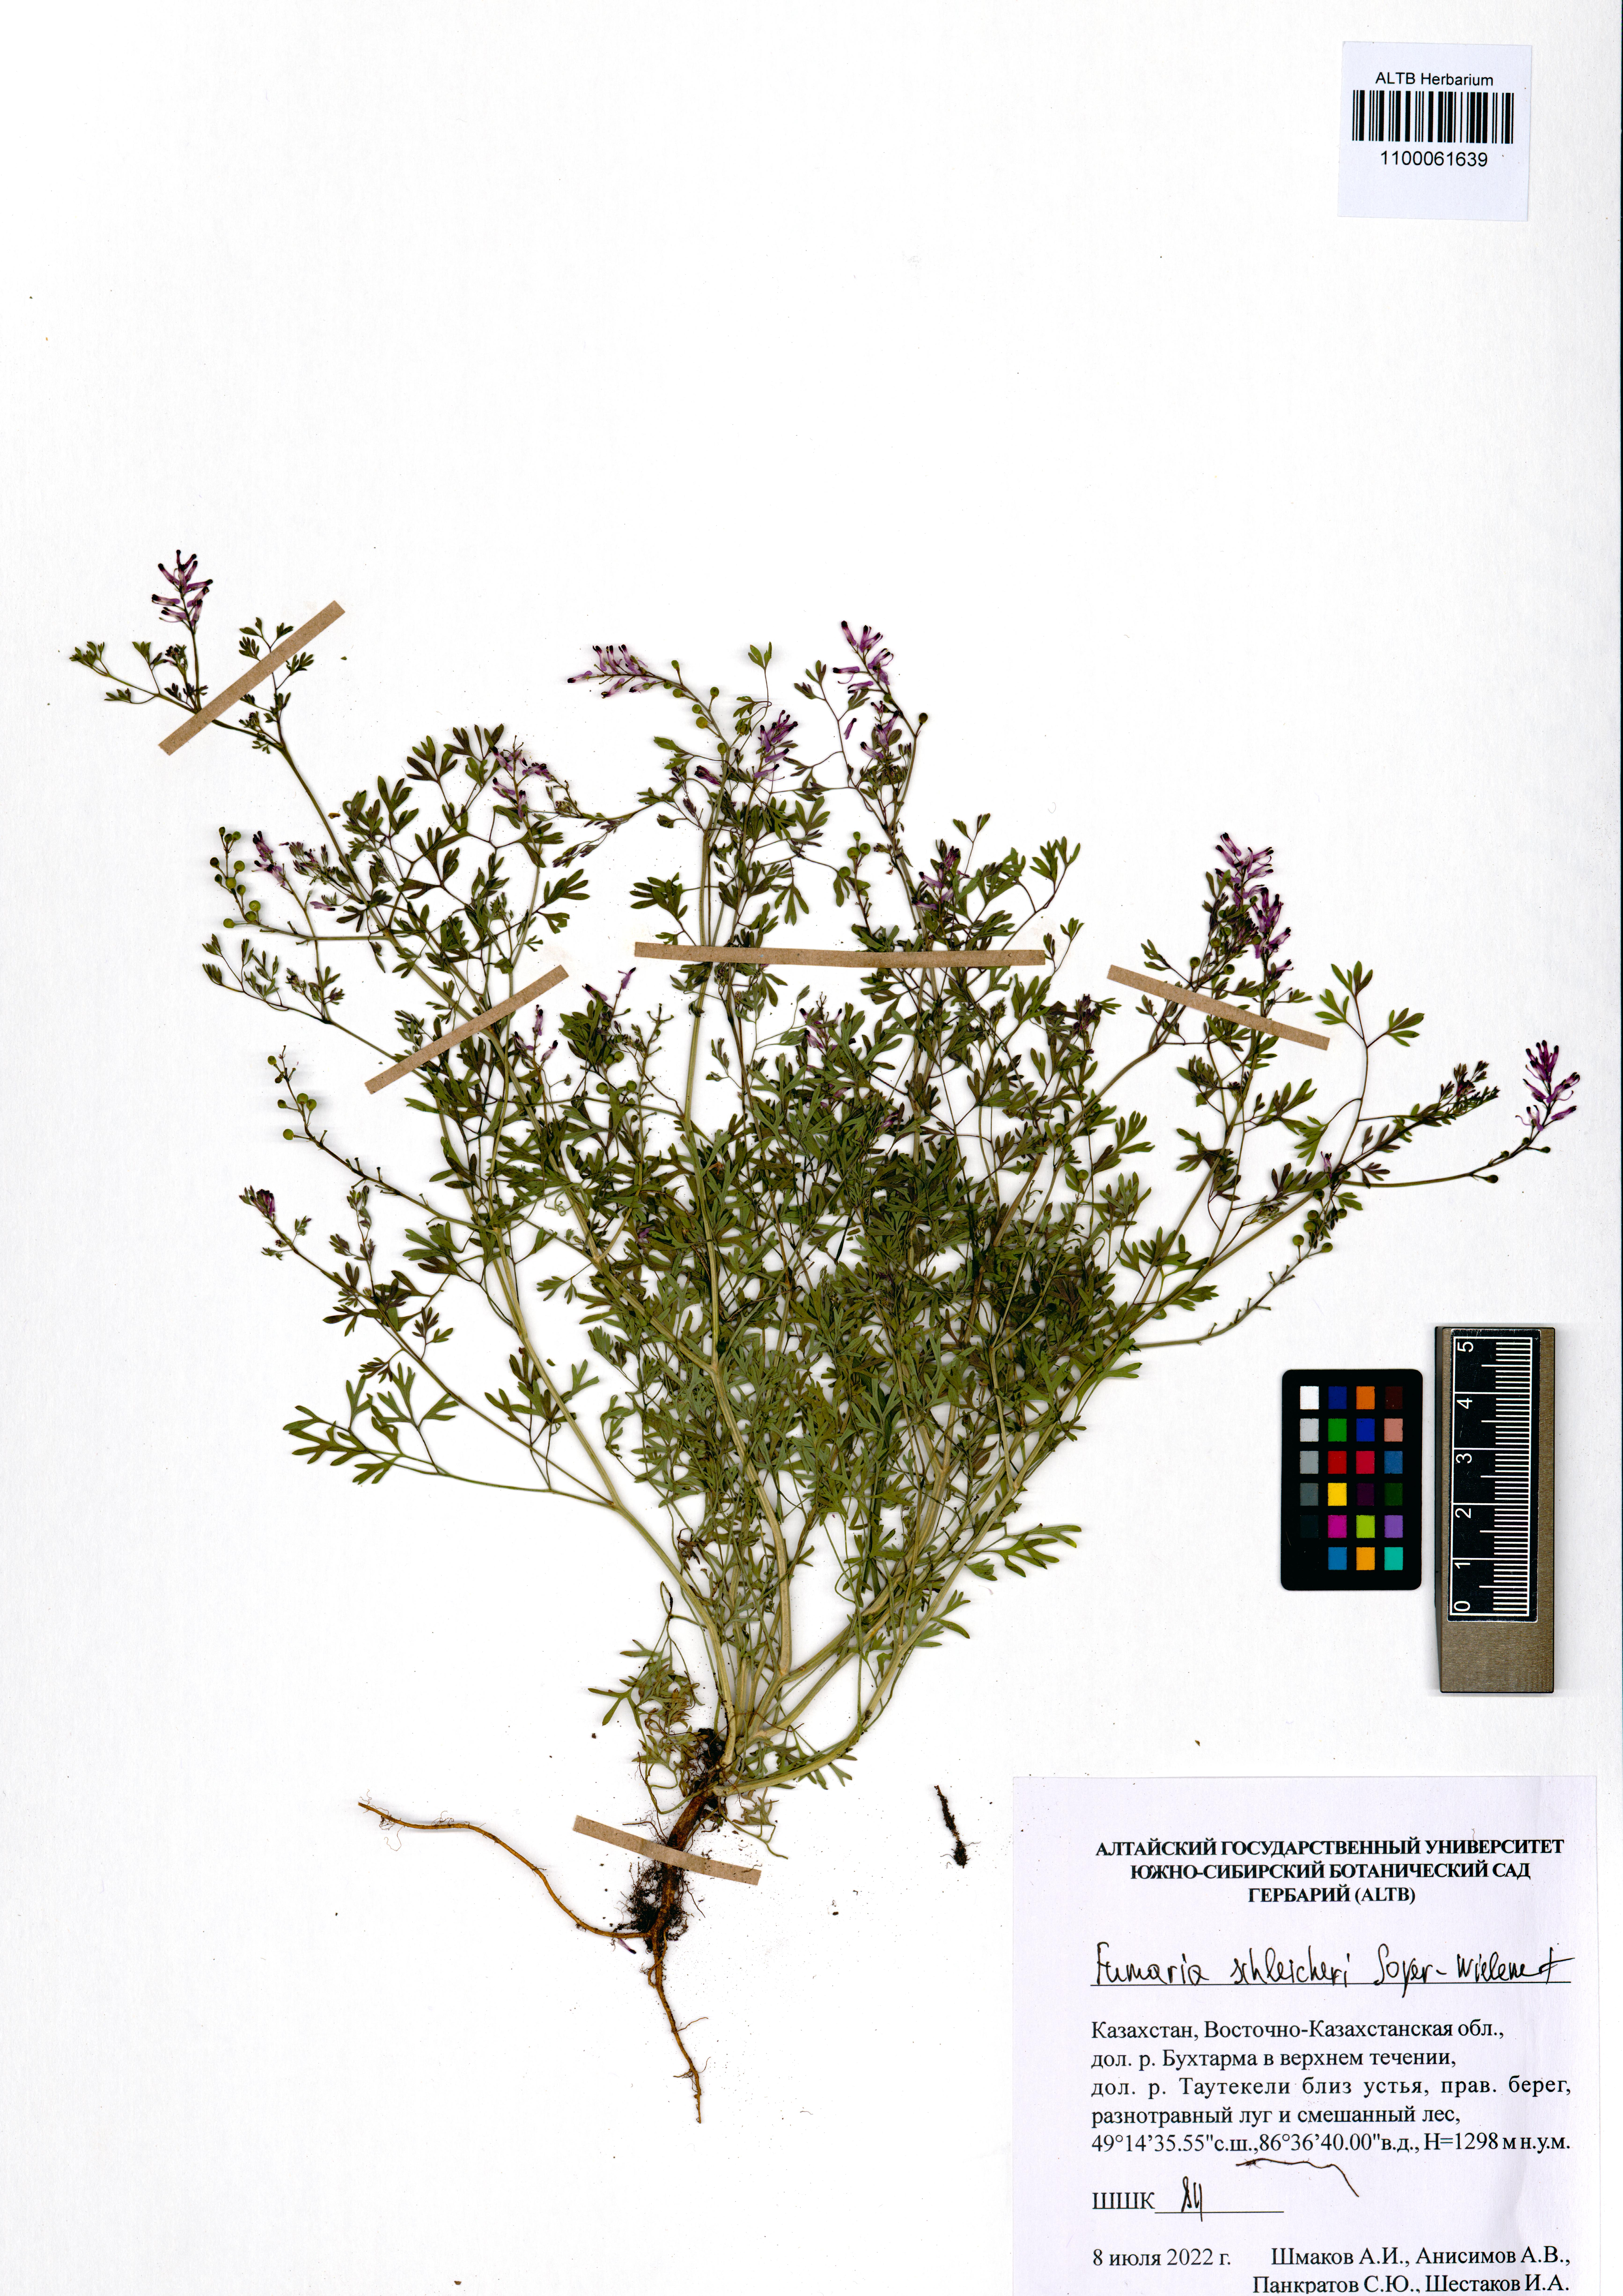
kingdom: Plantae
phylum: Tracheophyta
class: Magnoliopsida
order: Ranunculales
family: Papaveraceae
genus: Fumaria
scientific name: Fumaria schleicheri
